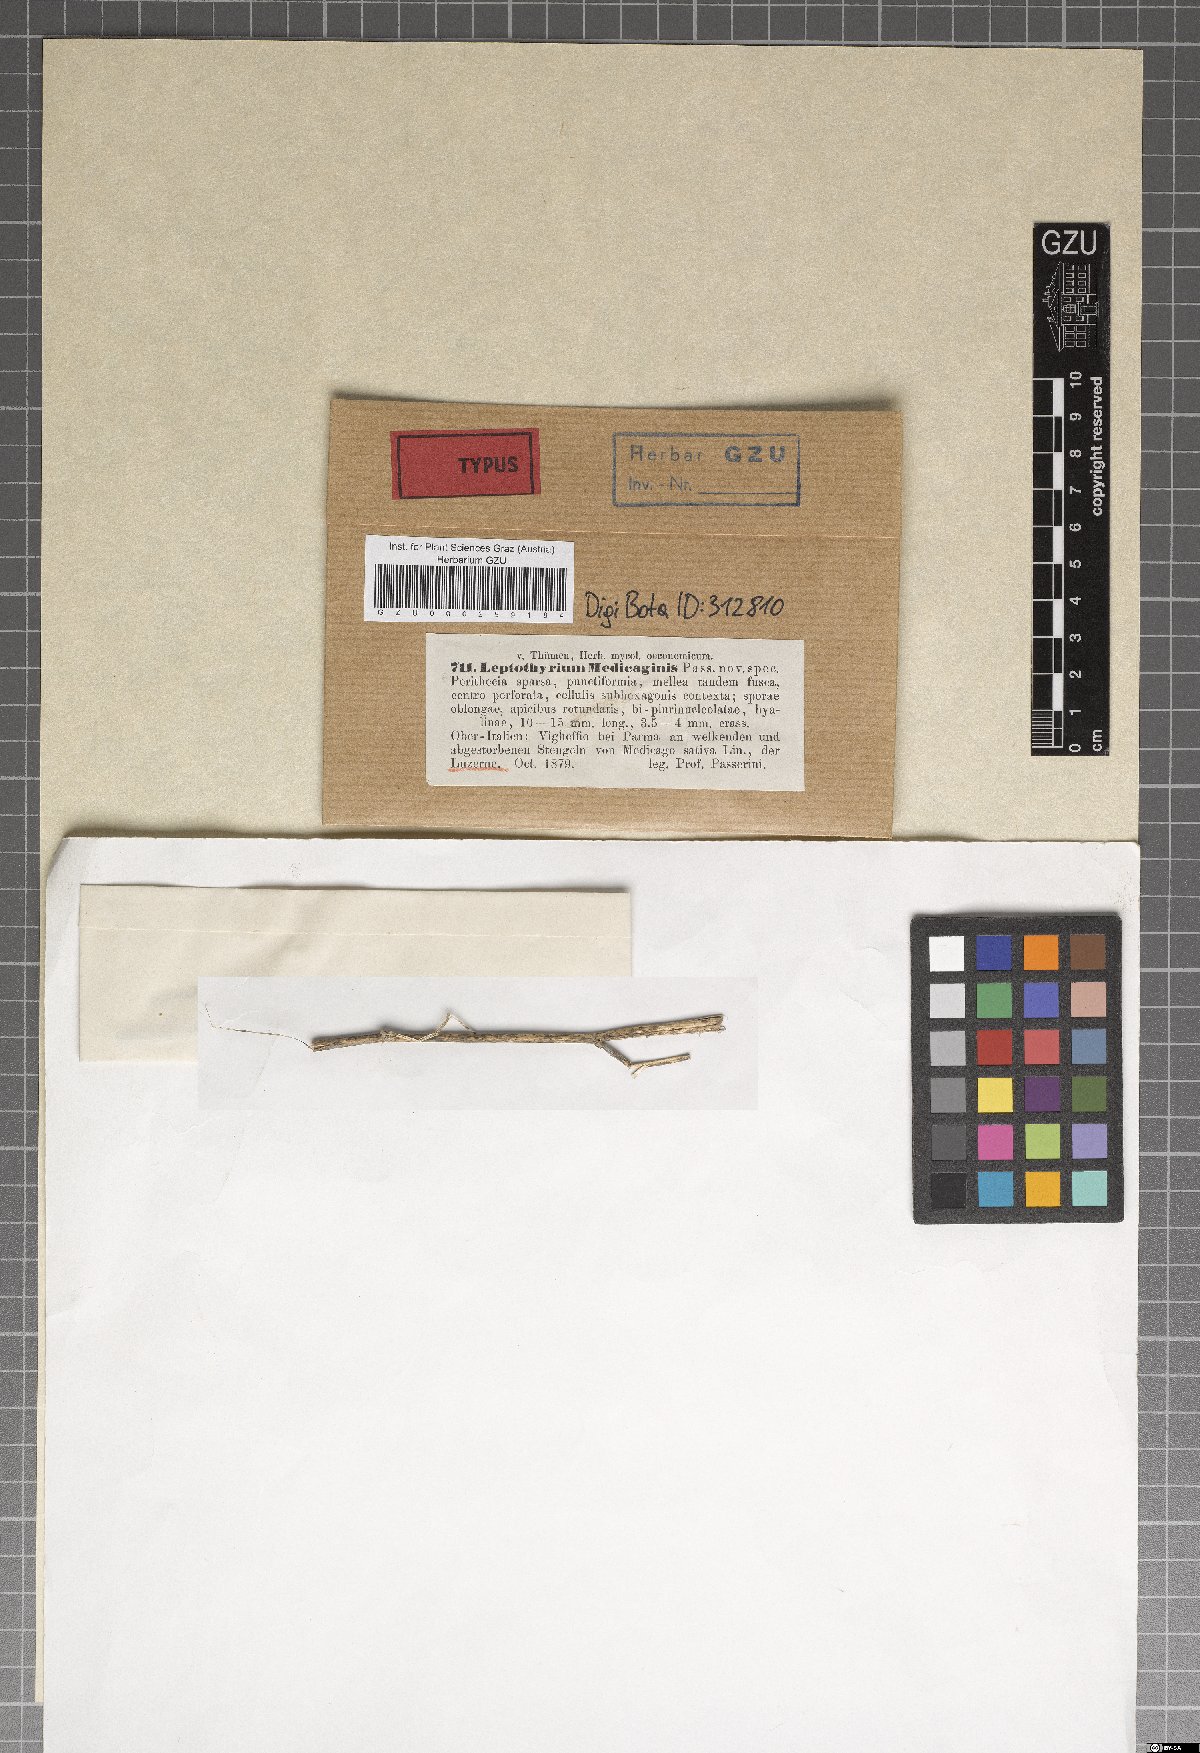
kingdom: Fungi
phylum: Ascomycota
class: Dothideomycetes
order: Pleosporales
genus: Leptothyrium
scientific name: Leptothyrium
